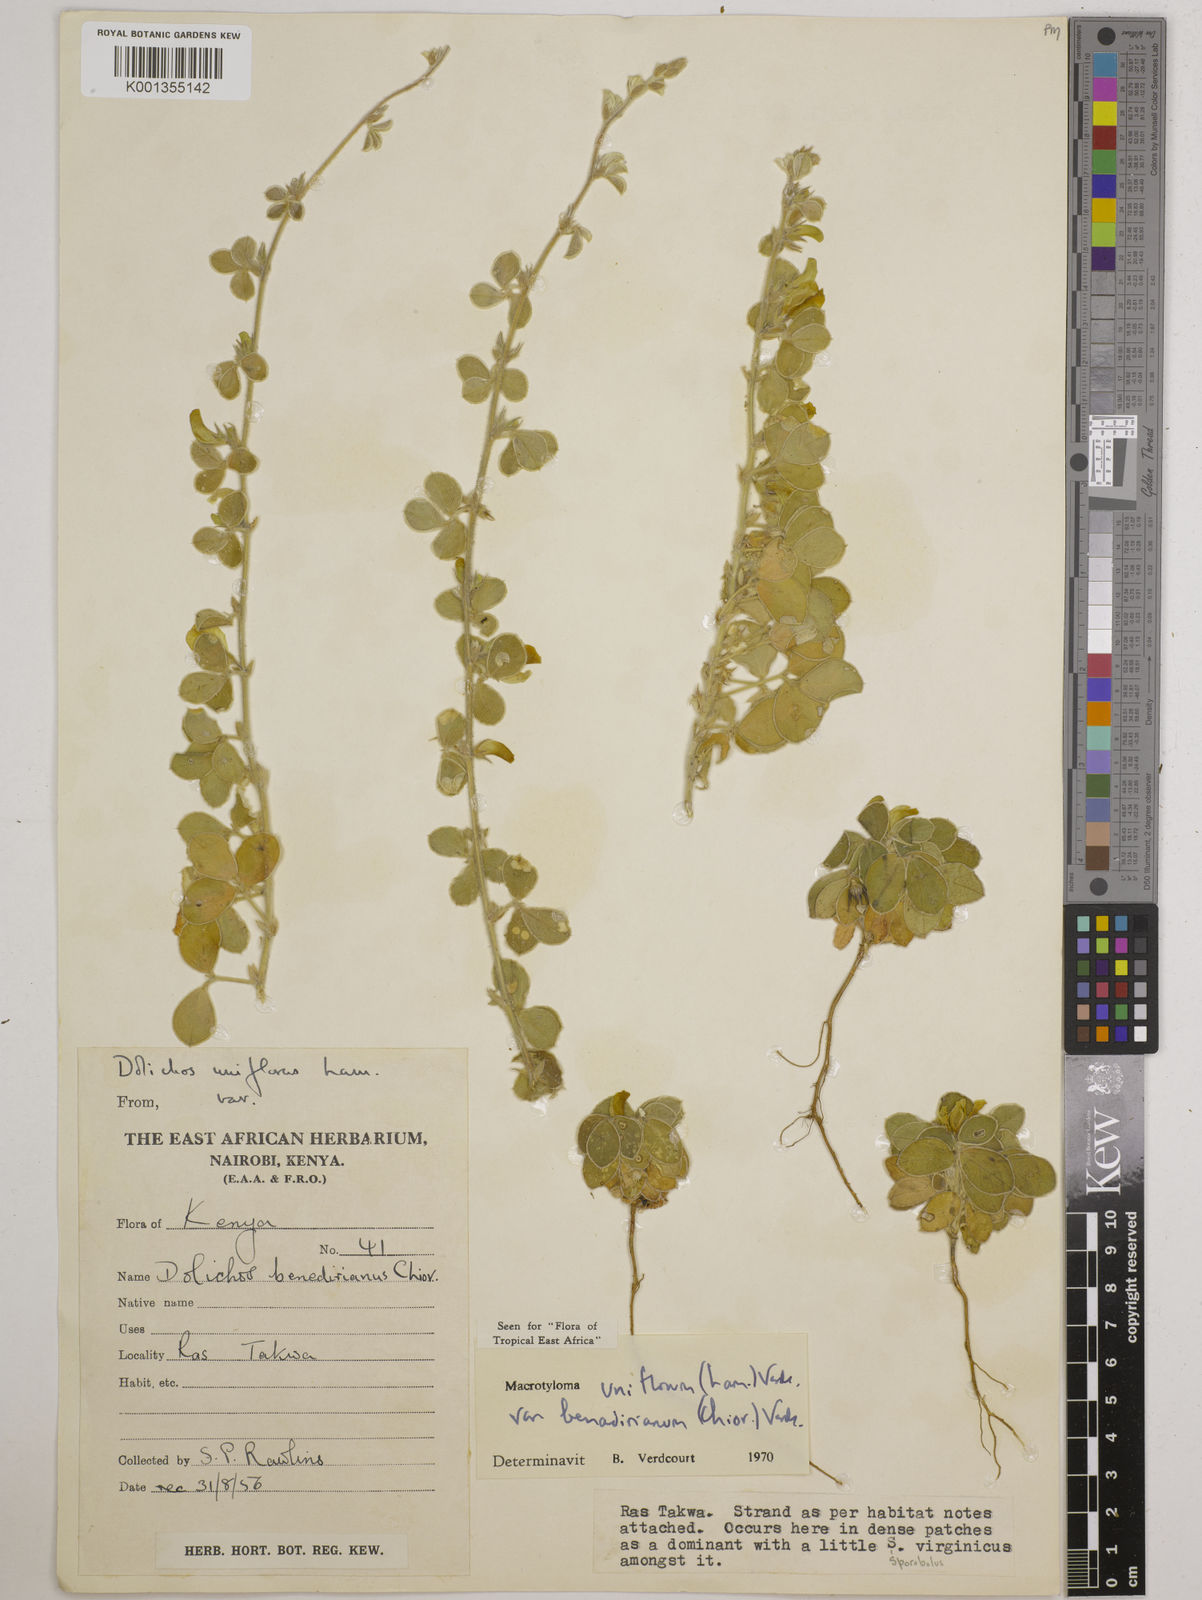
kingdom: Plantae
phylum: Tracheophyta
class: Magnoliopsida
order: Fabales
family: Fabaceae
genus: Macrotyloma
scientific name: Macrotyloma
